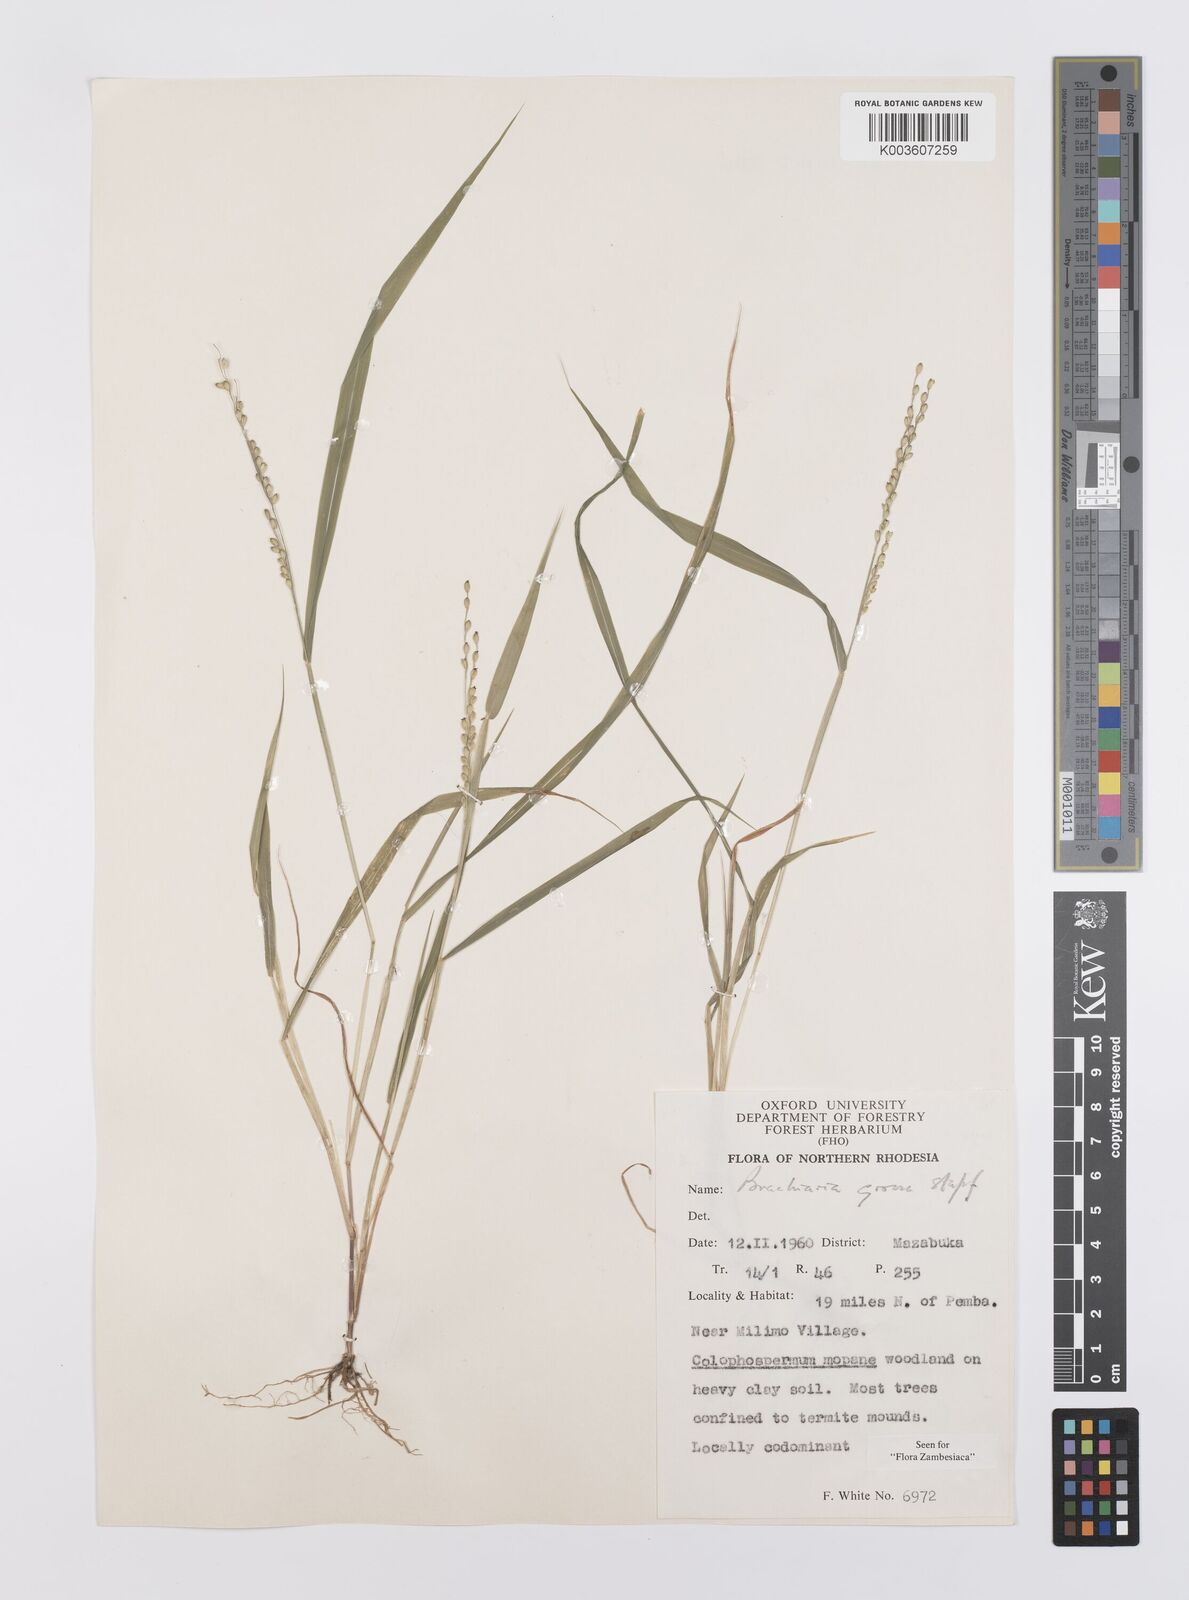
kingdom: Plantae
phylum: Tracheophyta
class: Liliopsida
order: Poales
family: Poaceae
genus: Urochloa
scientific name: Urochloa Brachiaria grossa
